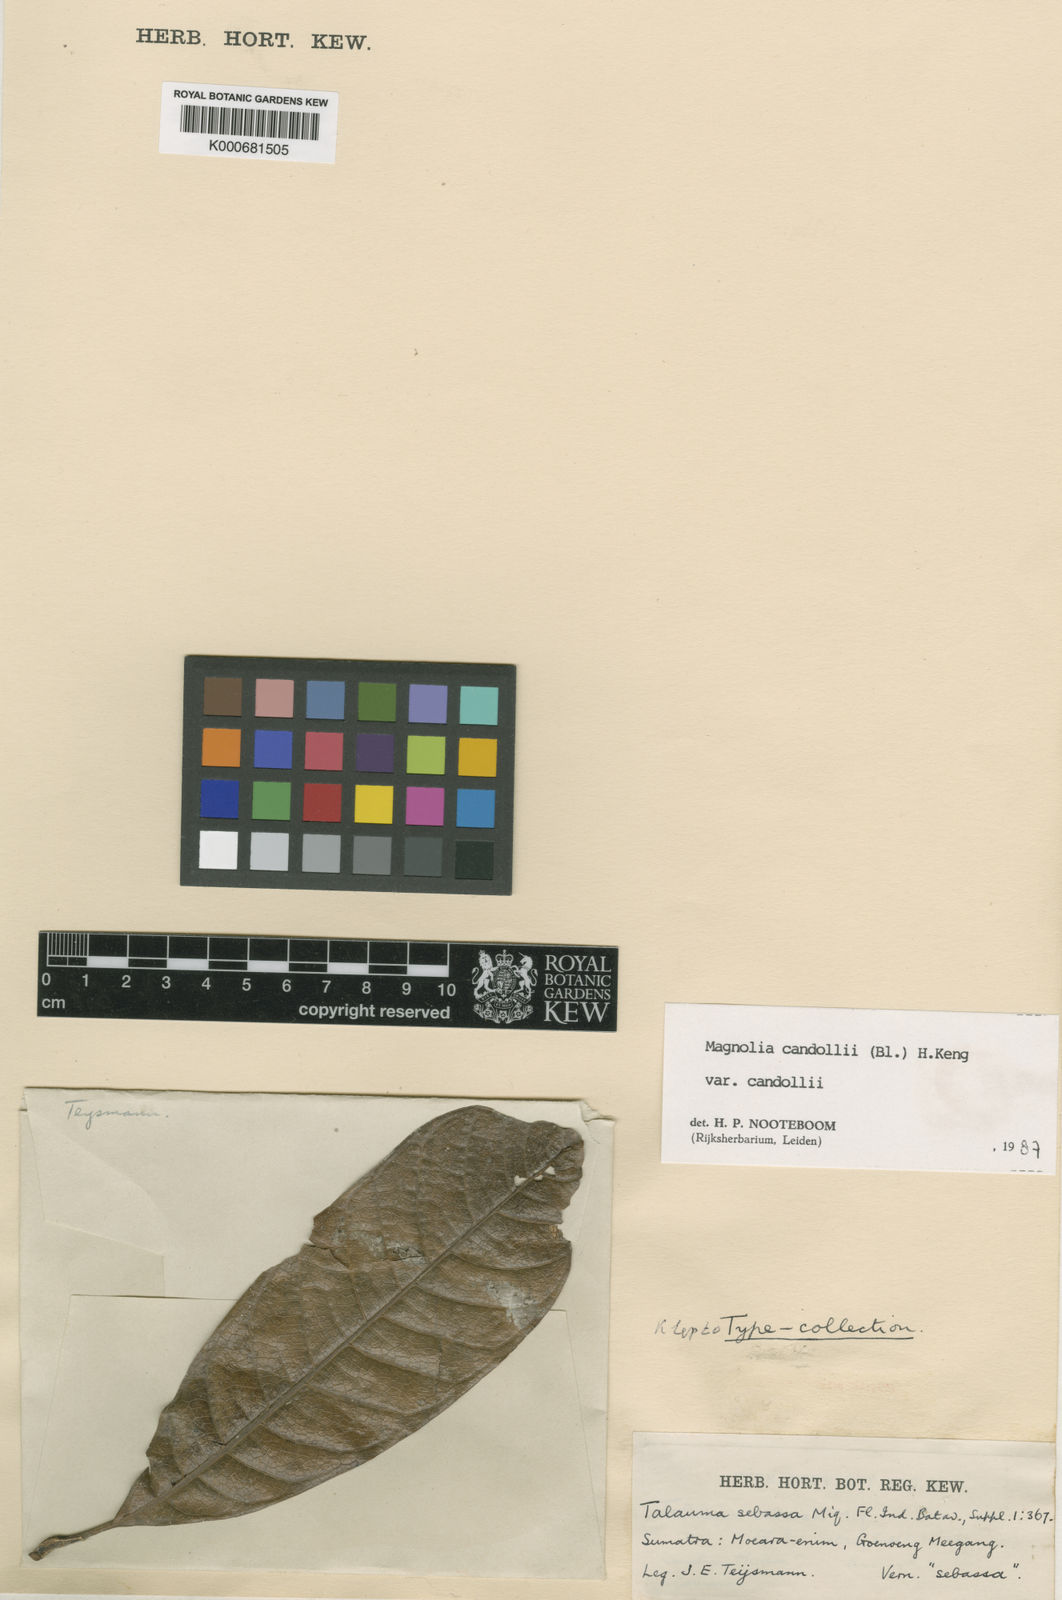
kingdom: Plantae
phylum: Tracheophyta
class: Magnoliopsida
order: Magnoliales
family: Magnoliaceae
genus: Magnolia
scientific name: Magnolia liliifera
